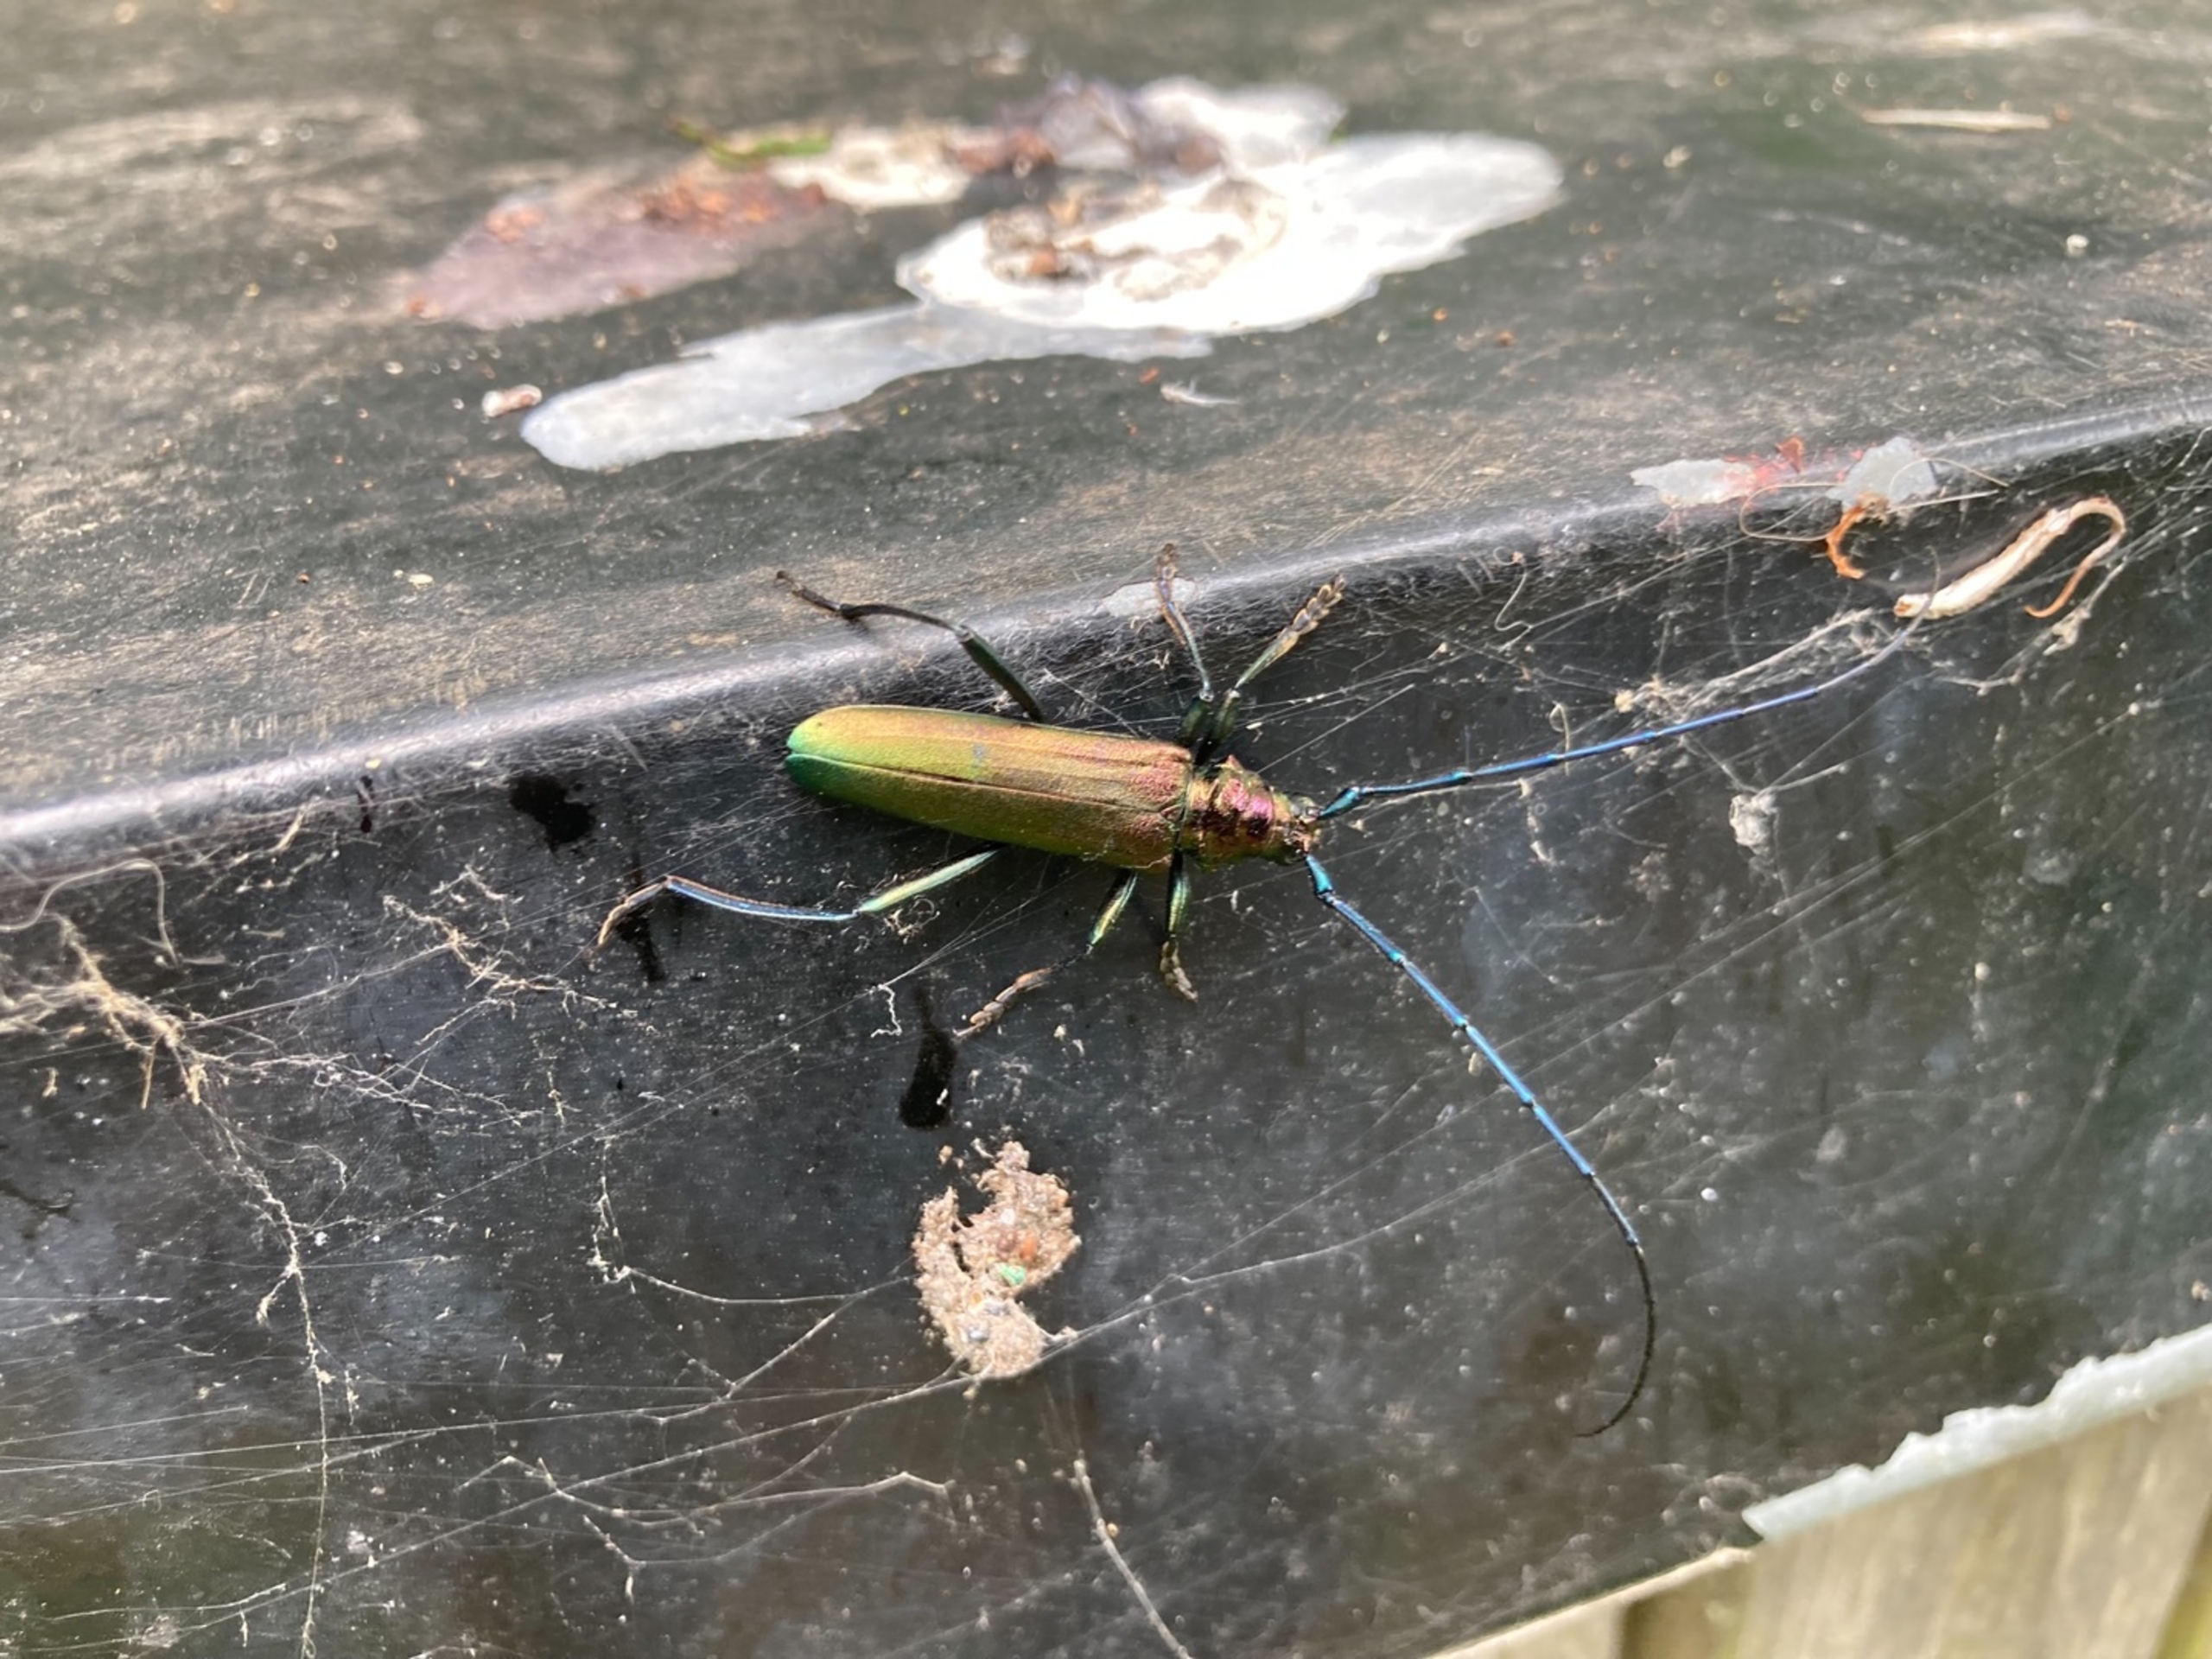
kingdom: Animalia
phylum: Arthropoda
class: Insecta
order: Coleoptera
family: Cerambycidae
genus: Aromia
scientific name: Aromia moschata
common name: Moskusbuk
